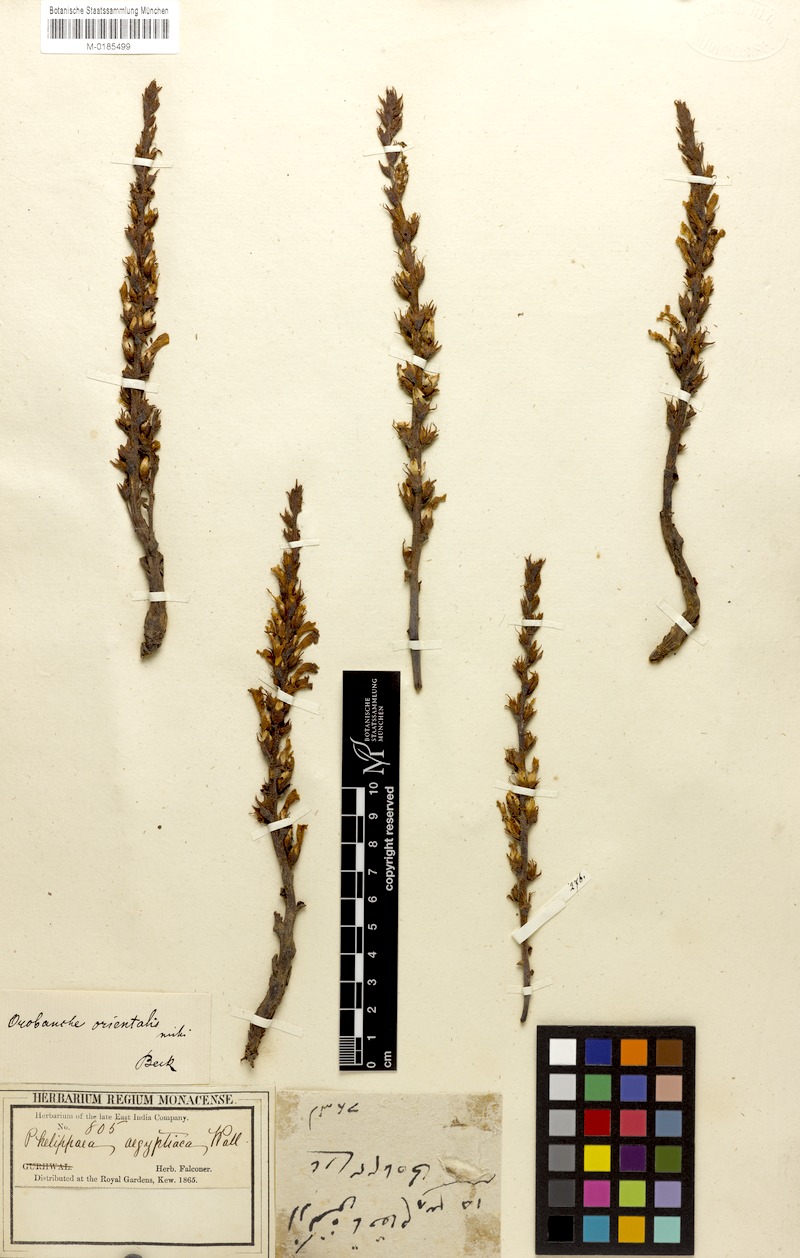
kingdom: Plantae
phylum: Tracheophyta
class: Magnoliopsida
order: Lamiales
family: Orobanchaceae
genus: Phelipanche
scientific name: Phelipanche orientalis
